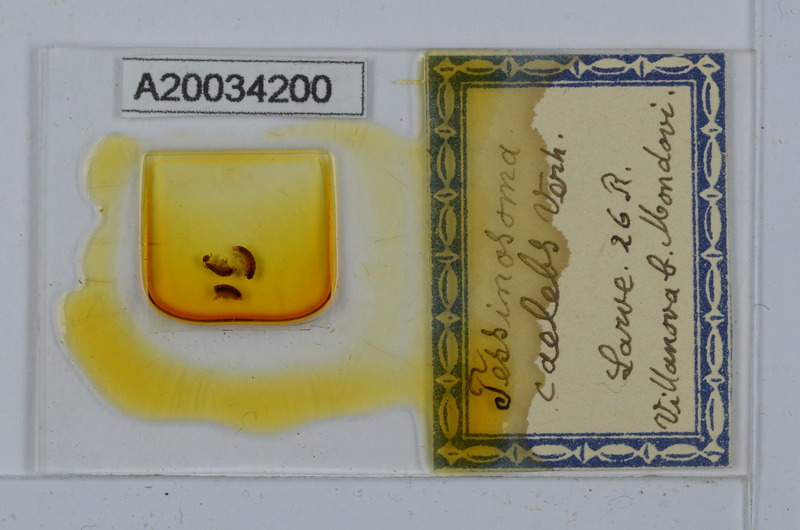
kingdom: Animalia
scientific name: Animalia
